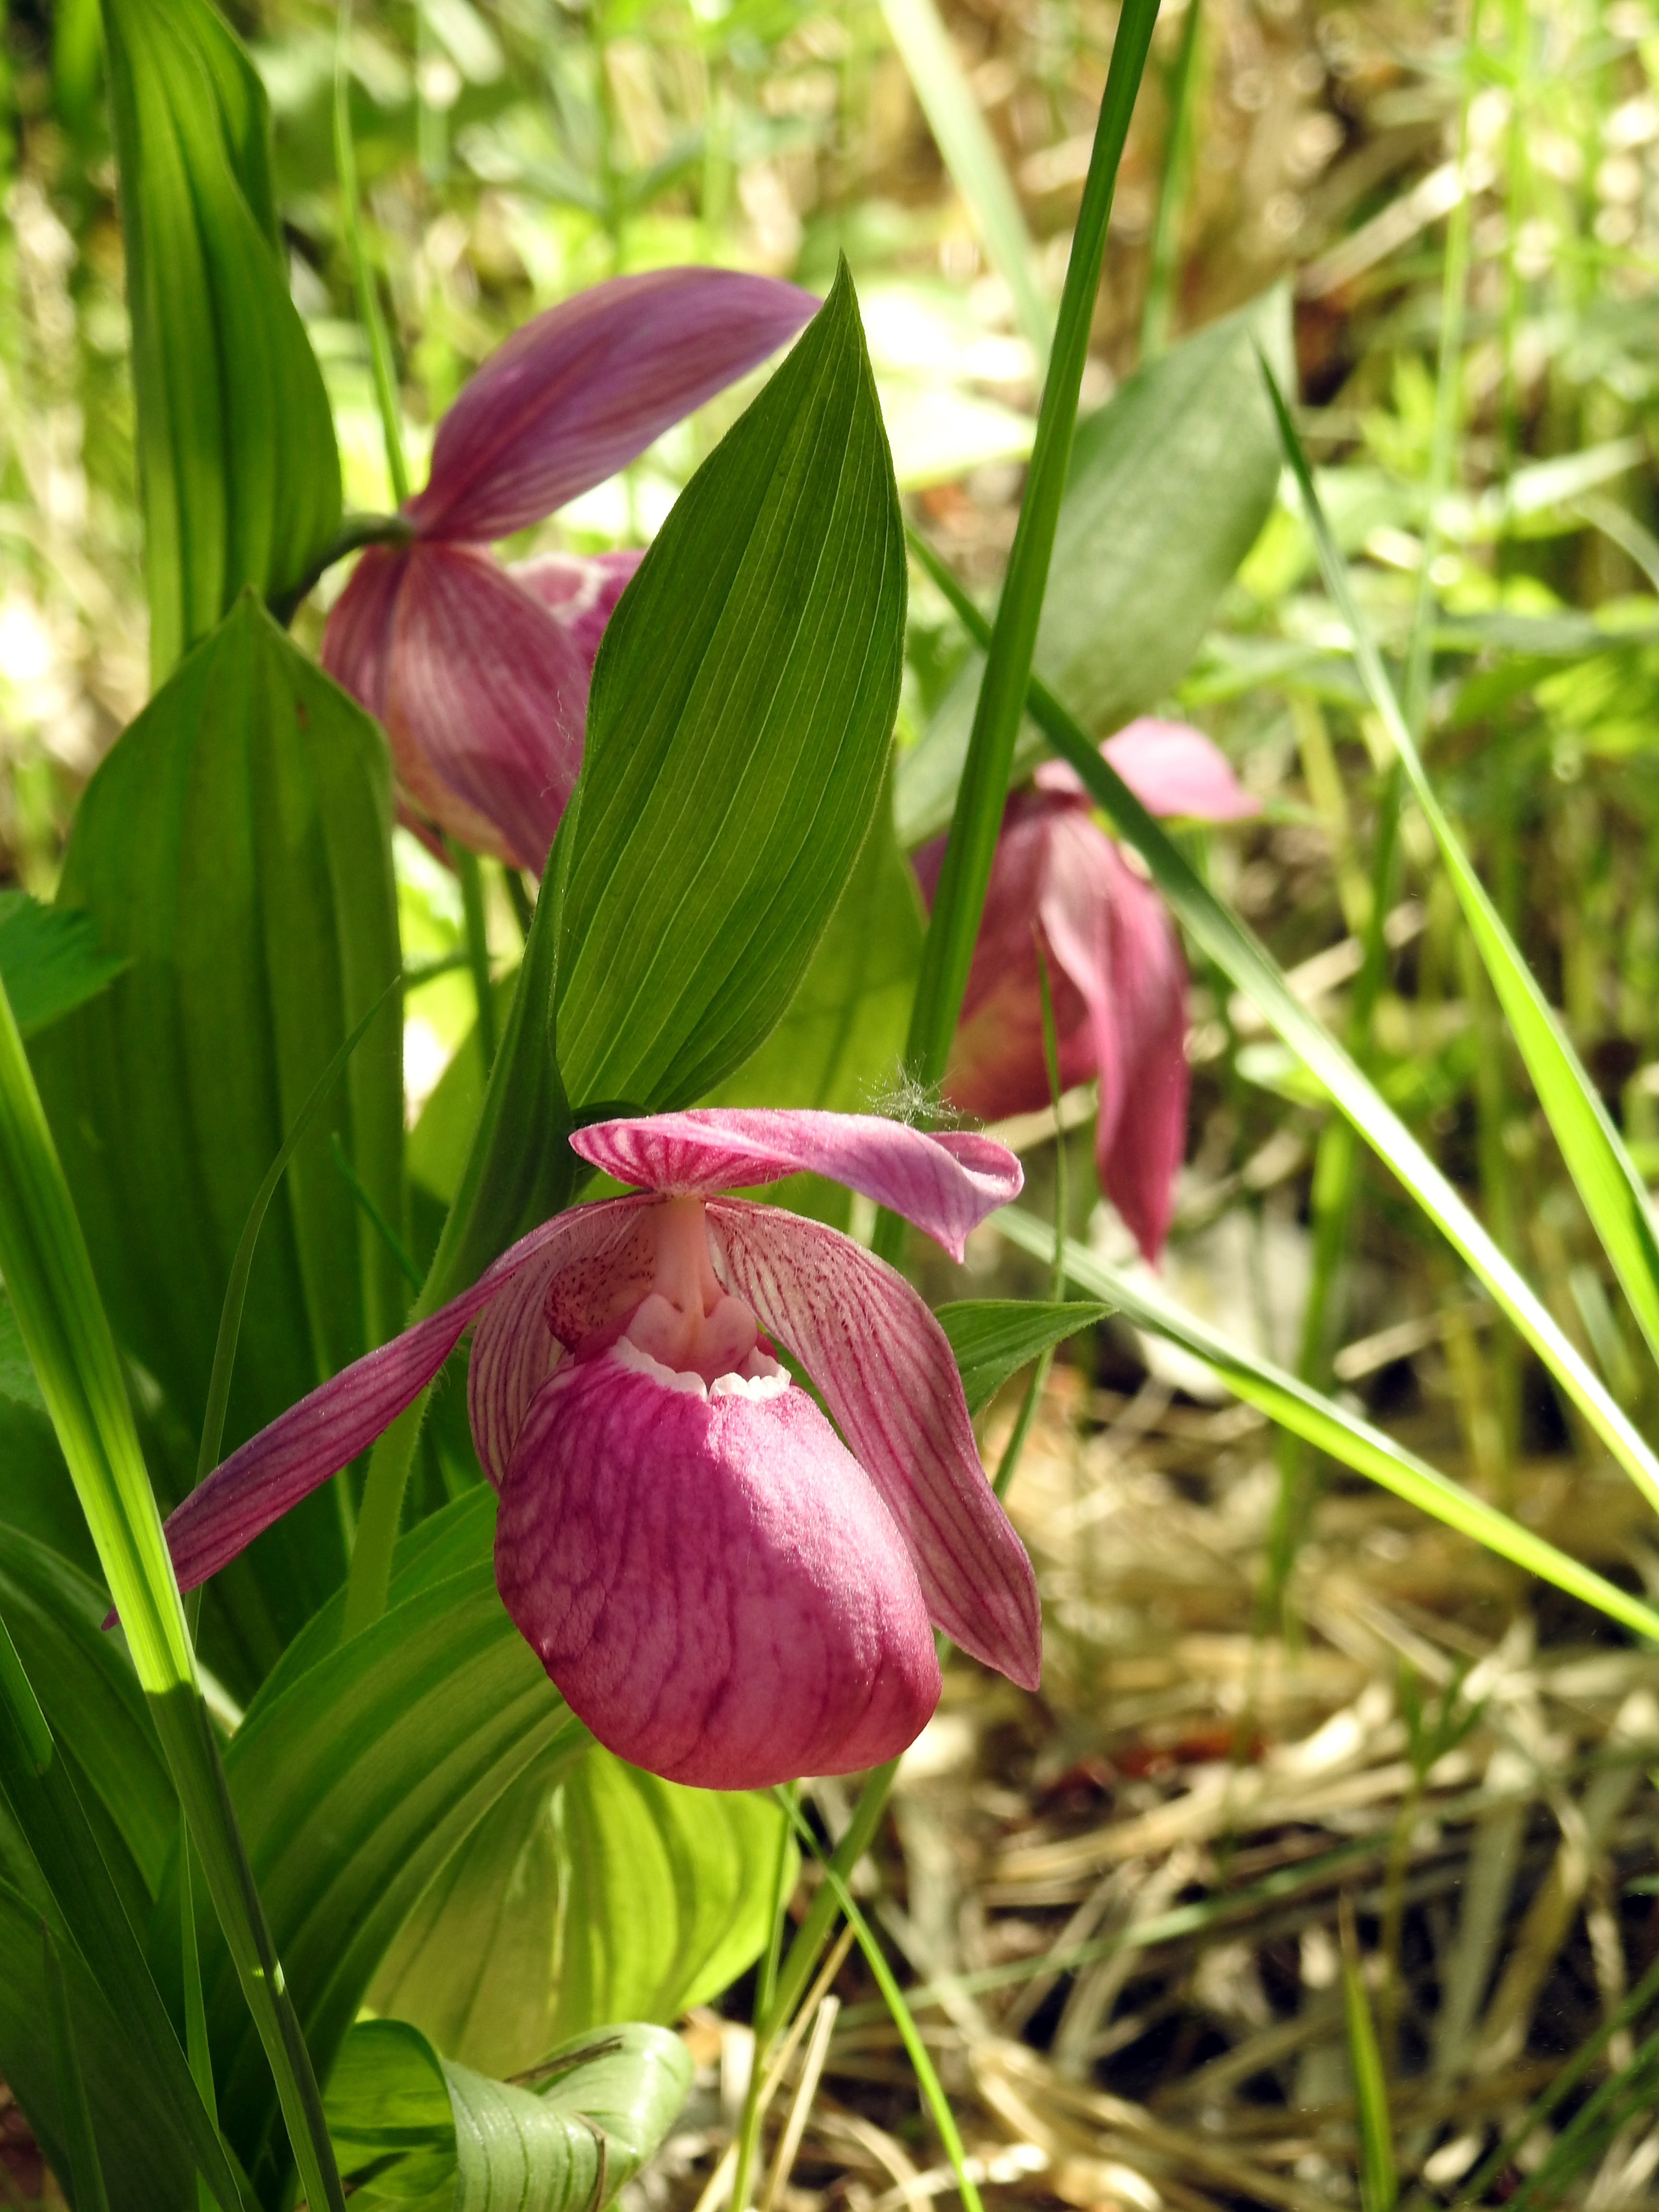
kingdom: Plantae
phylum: Tracheophyta
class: Liliopsida
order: Asparagales
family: Orchidaceae
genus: Cypripedium
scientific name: Cypripedium macranthos
